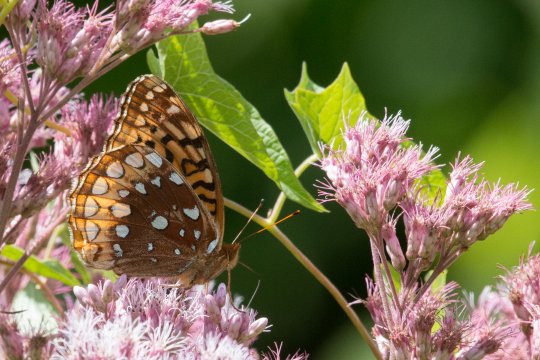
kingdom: Animalia
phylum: Arthropoda
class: Insecta
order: Lepidoptera
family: Nymphalidae
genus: Speyeria
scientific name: Speyeria cybele
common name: Great Spangled Fritillary
